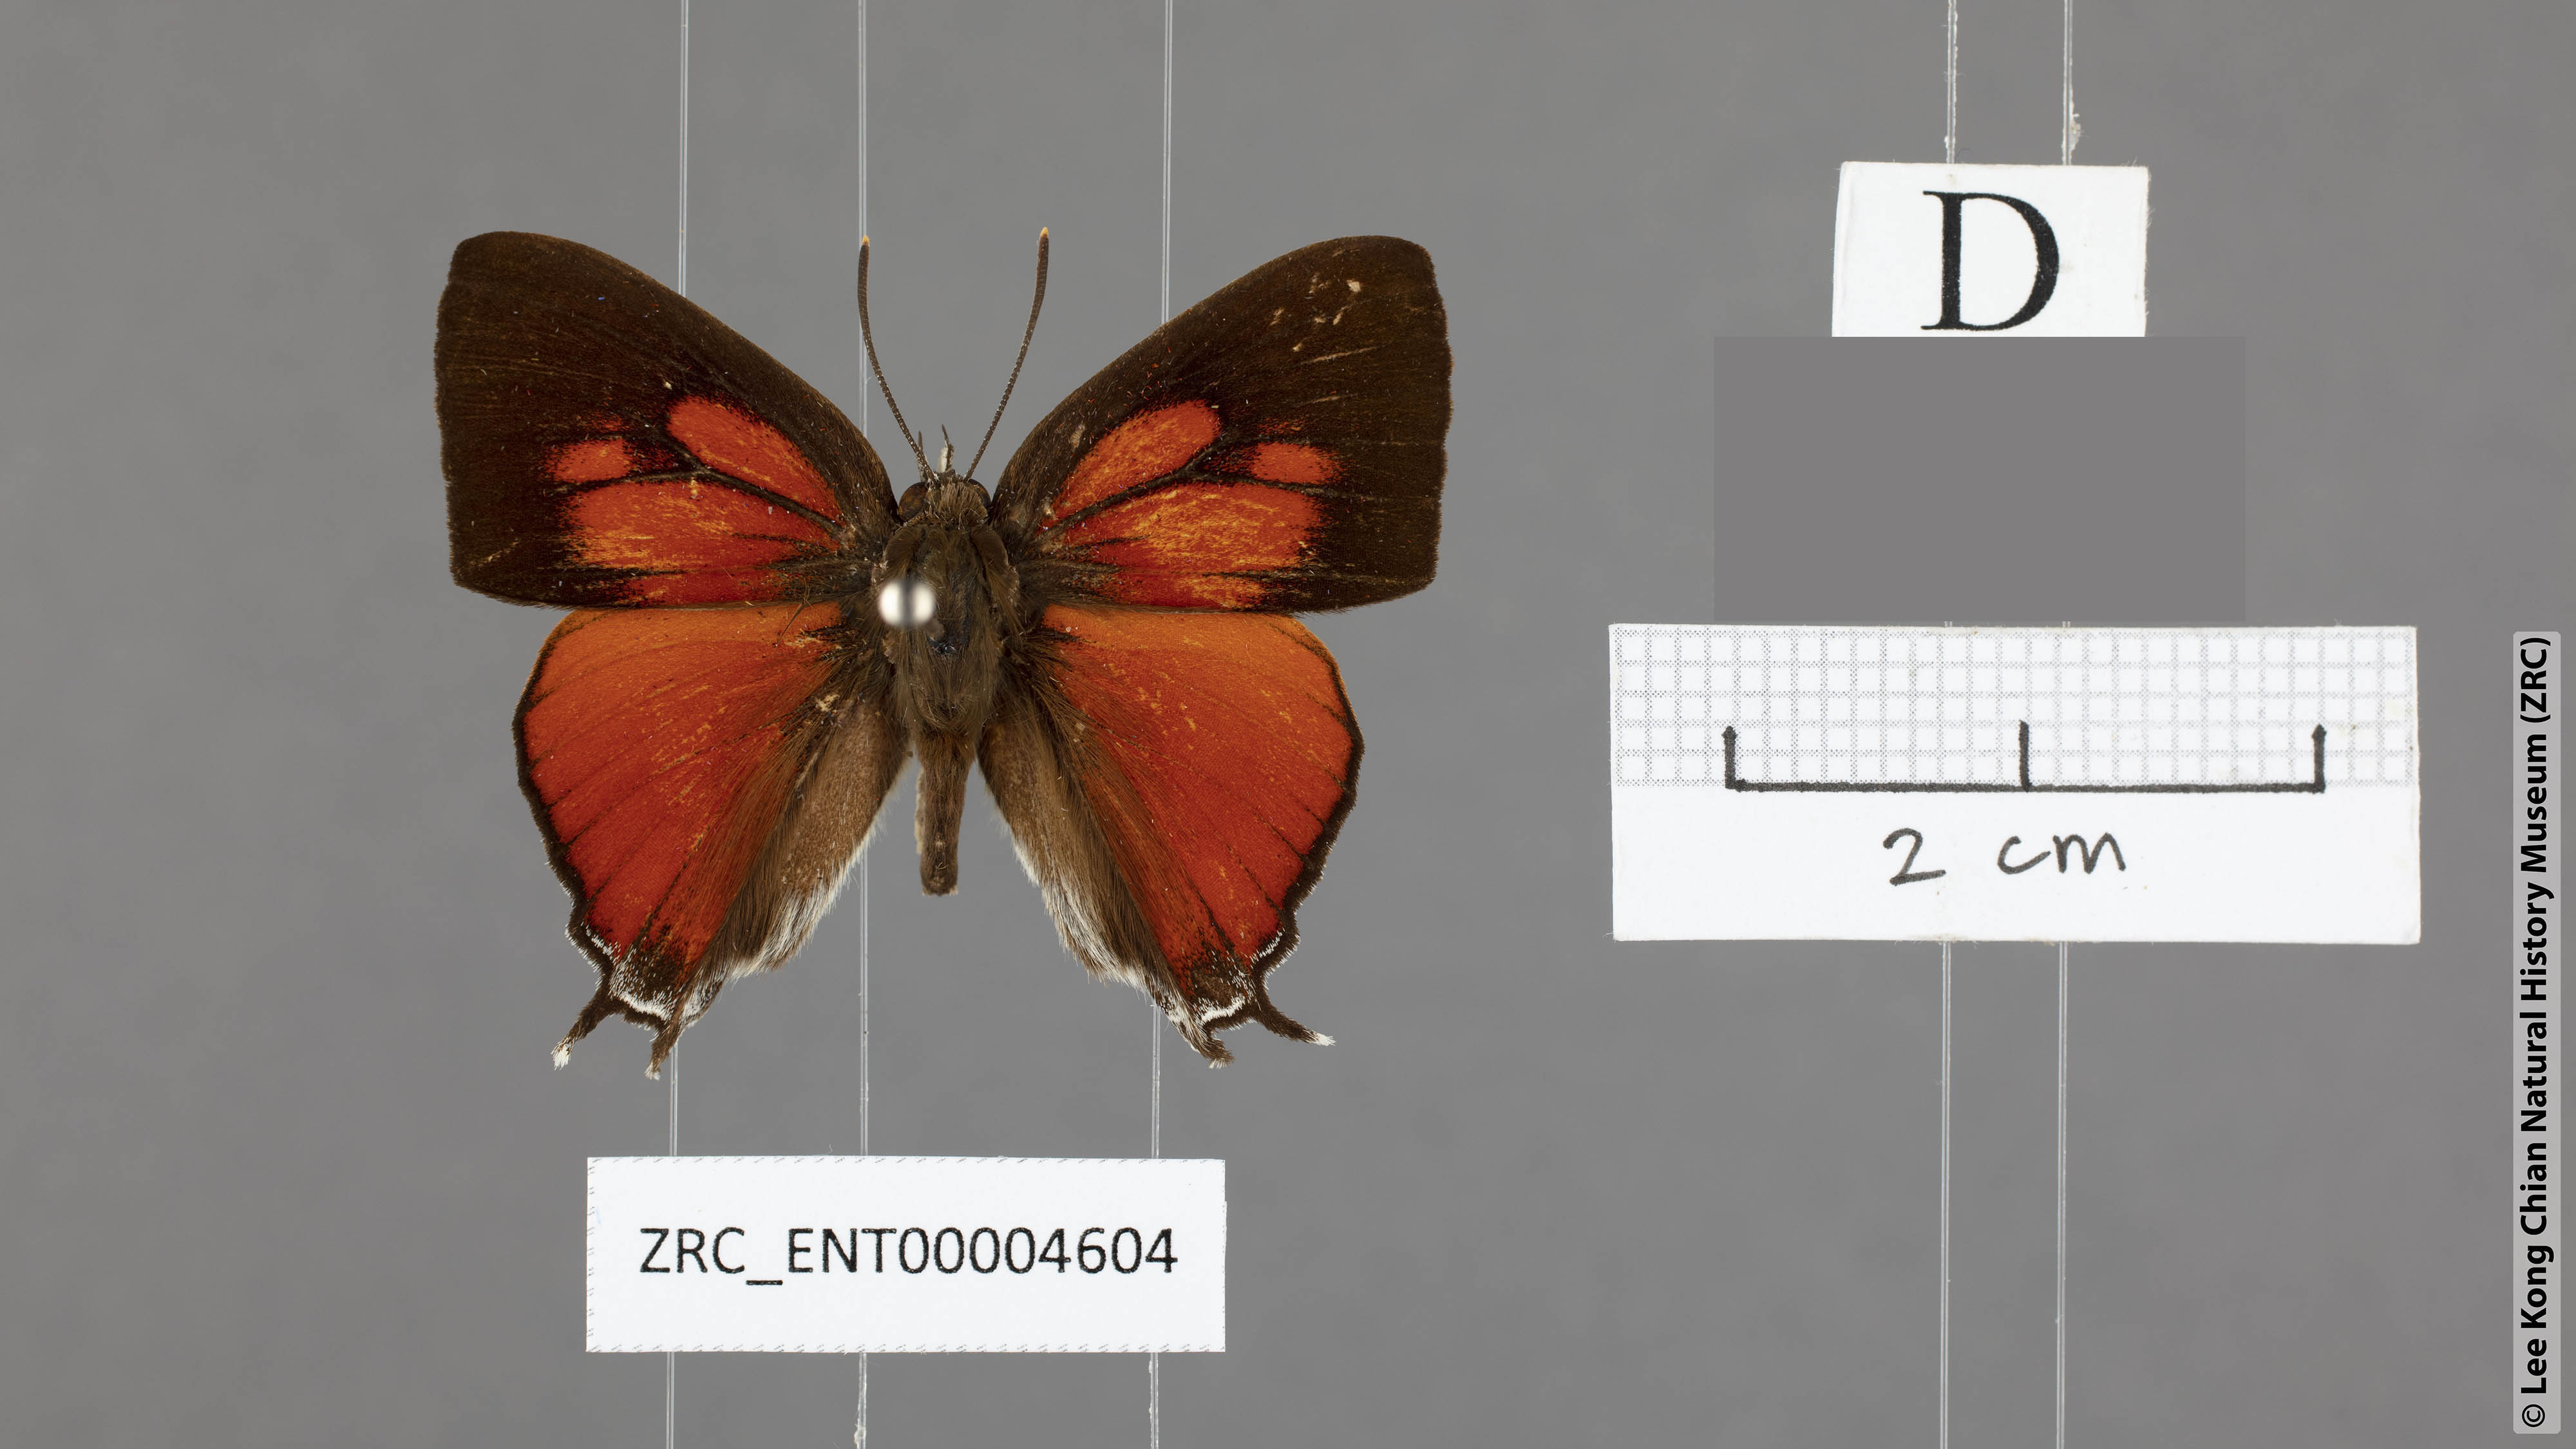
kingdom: Animalia
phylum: Arthropoda
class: Insecta
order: Lepidoptera
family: Lycaenidae
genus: Thamala
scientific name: Thamala marciana
